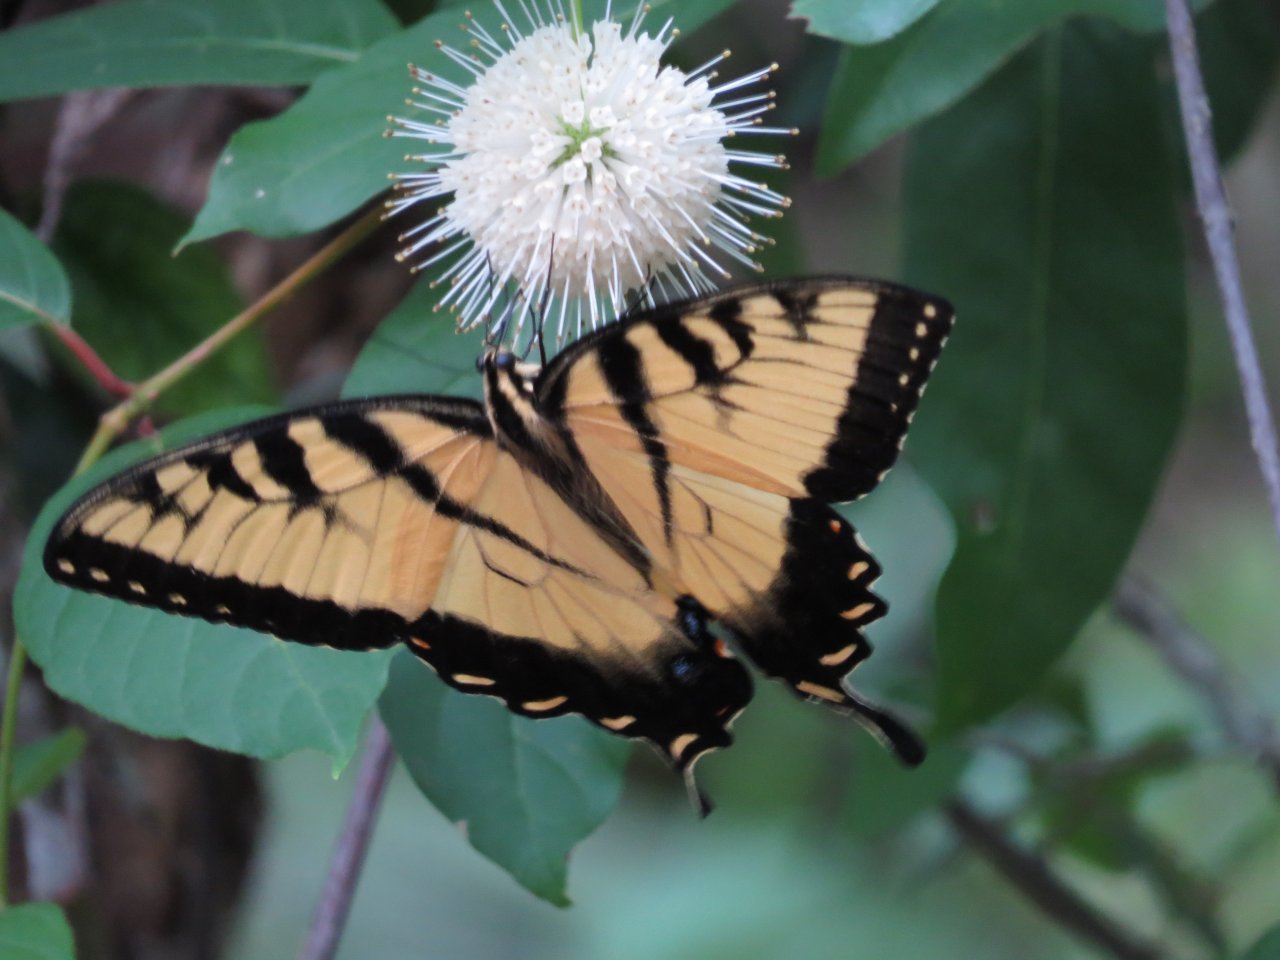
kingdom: Animalia
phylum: Arthropoda
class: Insecta
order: Lepidoptera
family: Papilionidae
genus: Pterourus
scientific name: Pterourus glaucus
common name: Eastern Tiger Swallowtail
